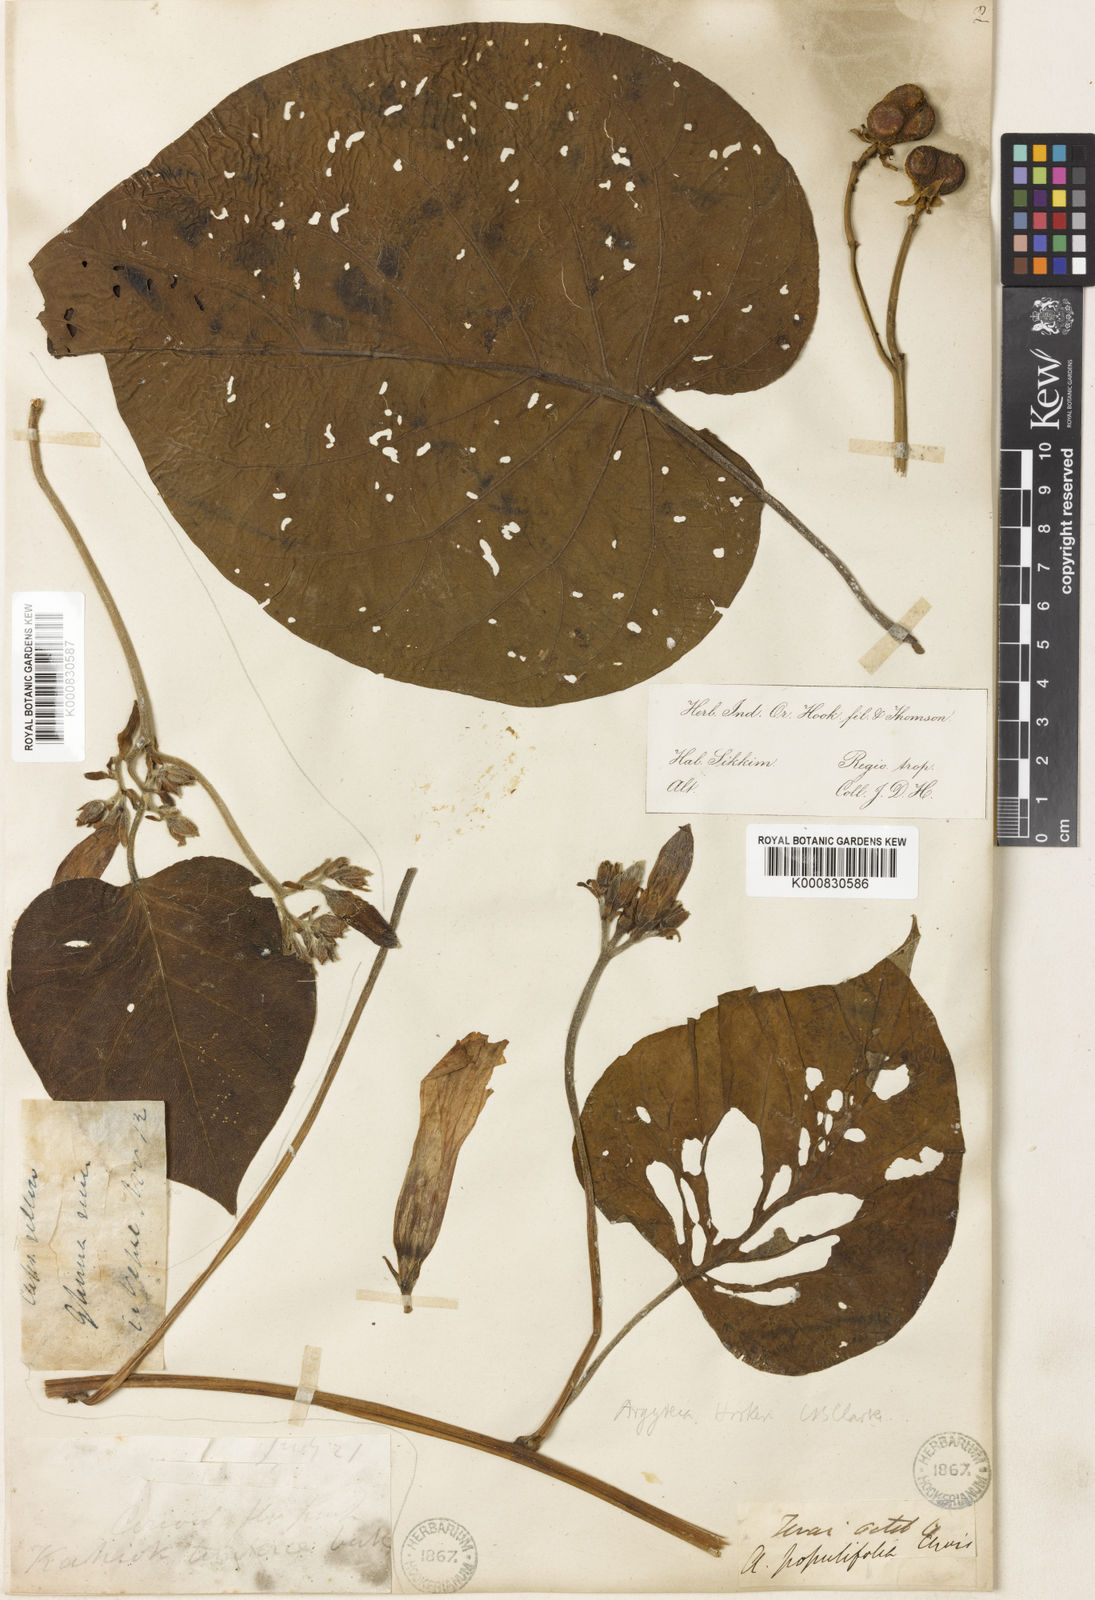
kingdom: Plantae
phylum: Tracheophyta
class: Magnoliopsida
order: Solanales
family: Convolvulaceae
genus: Argyreia
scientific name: Argyreia hookeri
